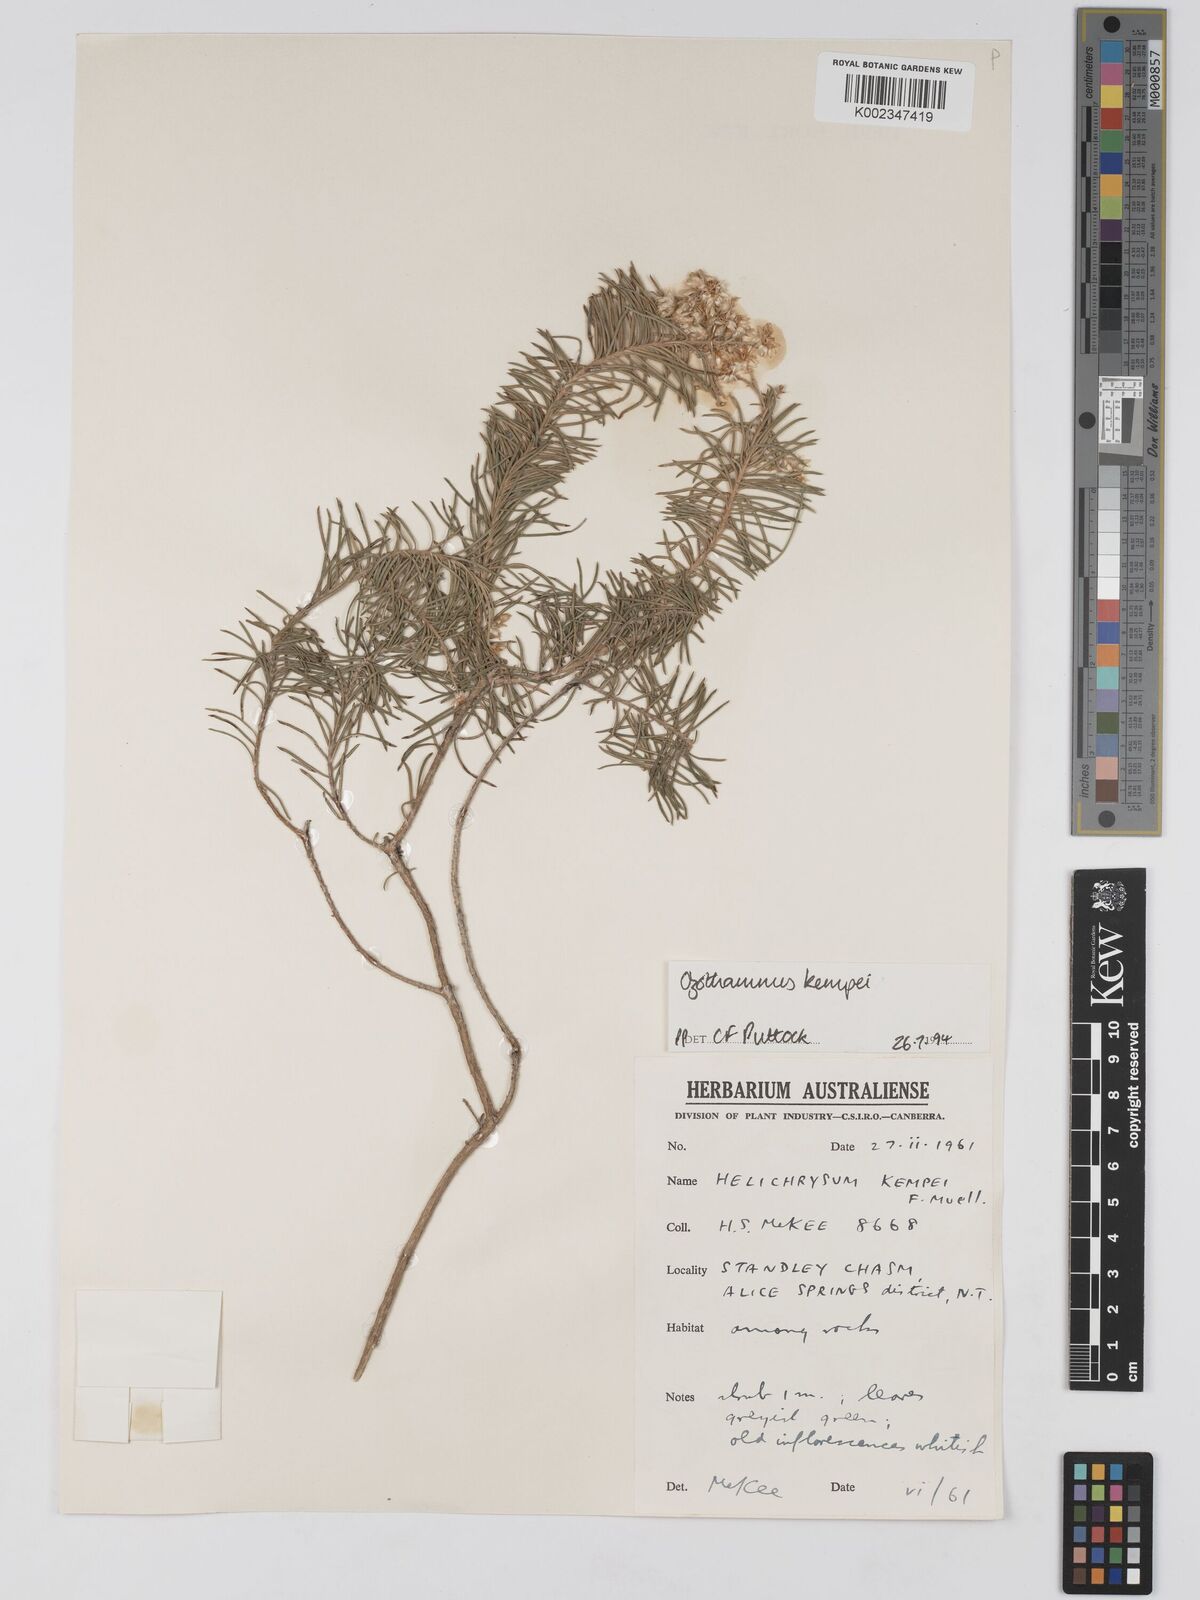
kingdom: Plantae
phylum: Tracheophyta
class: Magnoliopsida
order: Asterales
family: Asteraceae
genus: Ozothamnus
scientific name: Ozothamnus kempei
